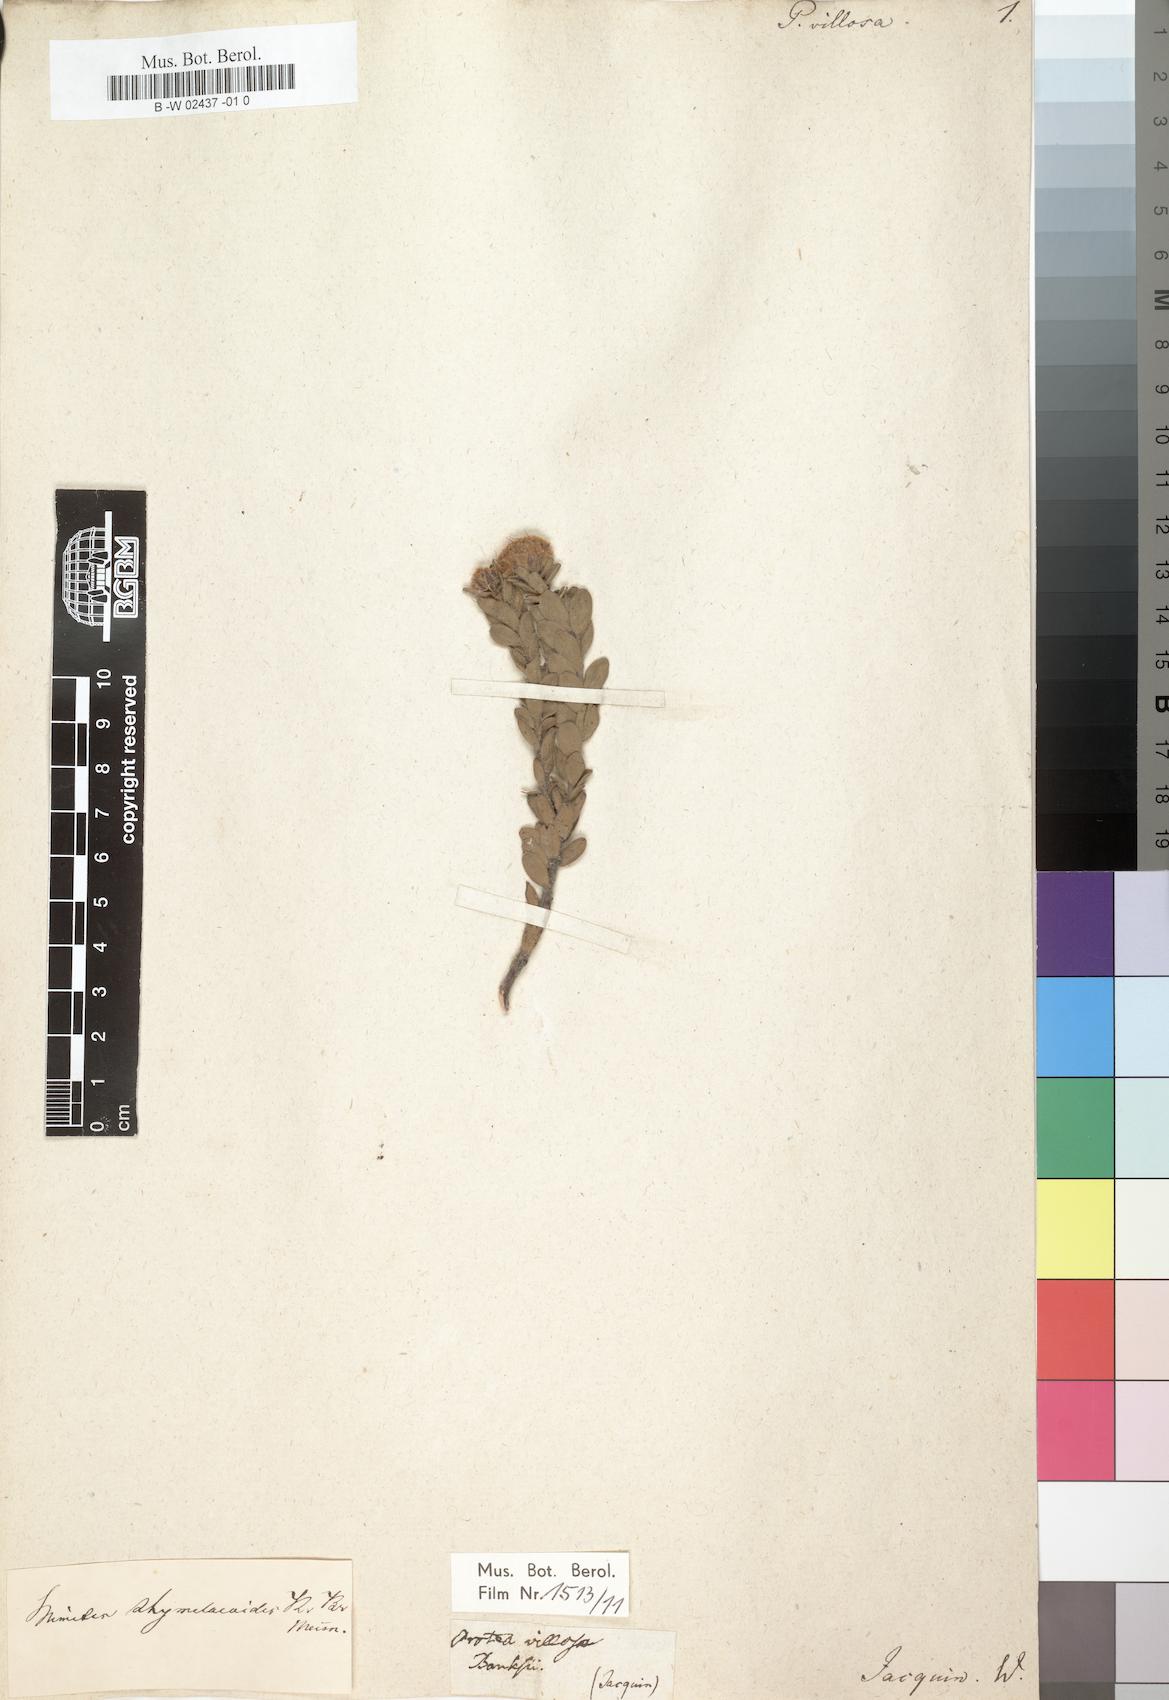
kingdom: Plantae
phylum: Tracheophyta
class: Magnoliopsida
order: Proteales
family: Proteaceae
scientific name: Proteaceae
